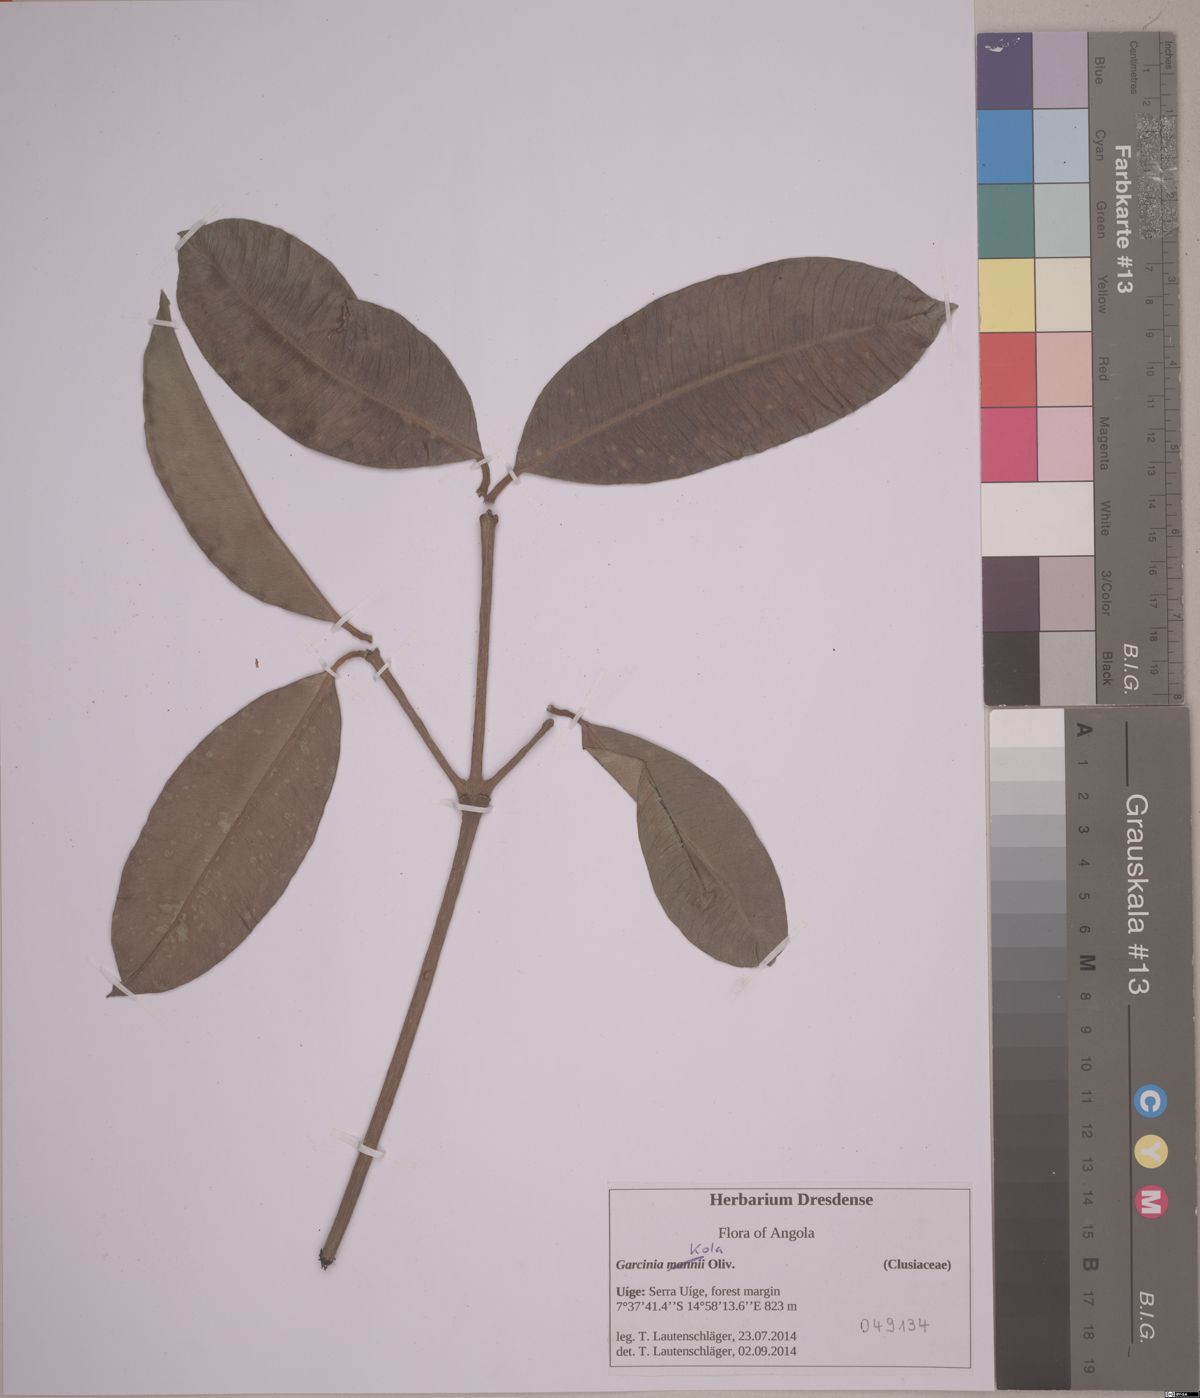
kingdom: Plantae
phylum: Tracheophyta
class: Magnoliopsida
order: Malpighiales
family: Clusiaceae
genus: Garcinia
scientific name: Garcinia kola
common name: Bitter-kola
